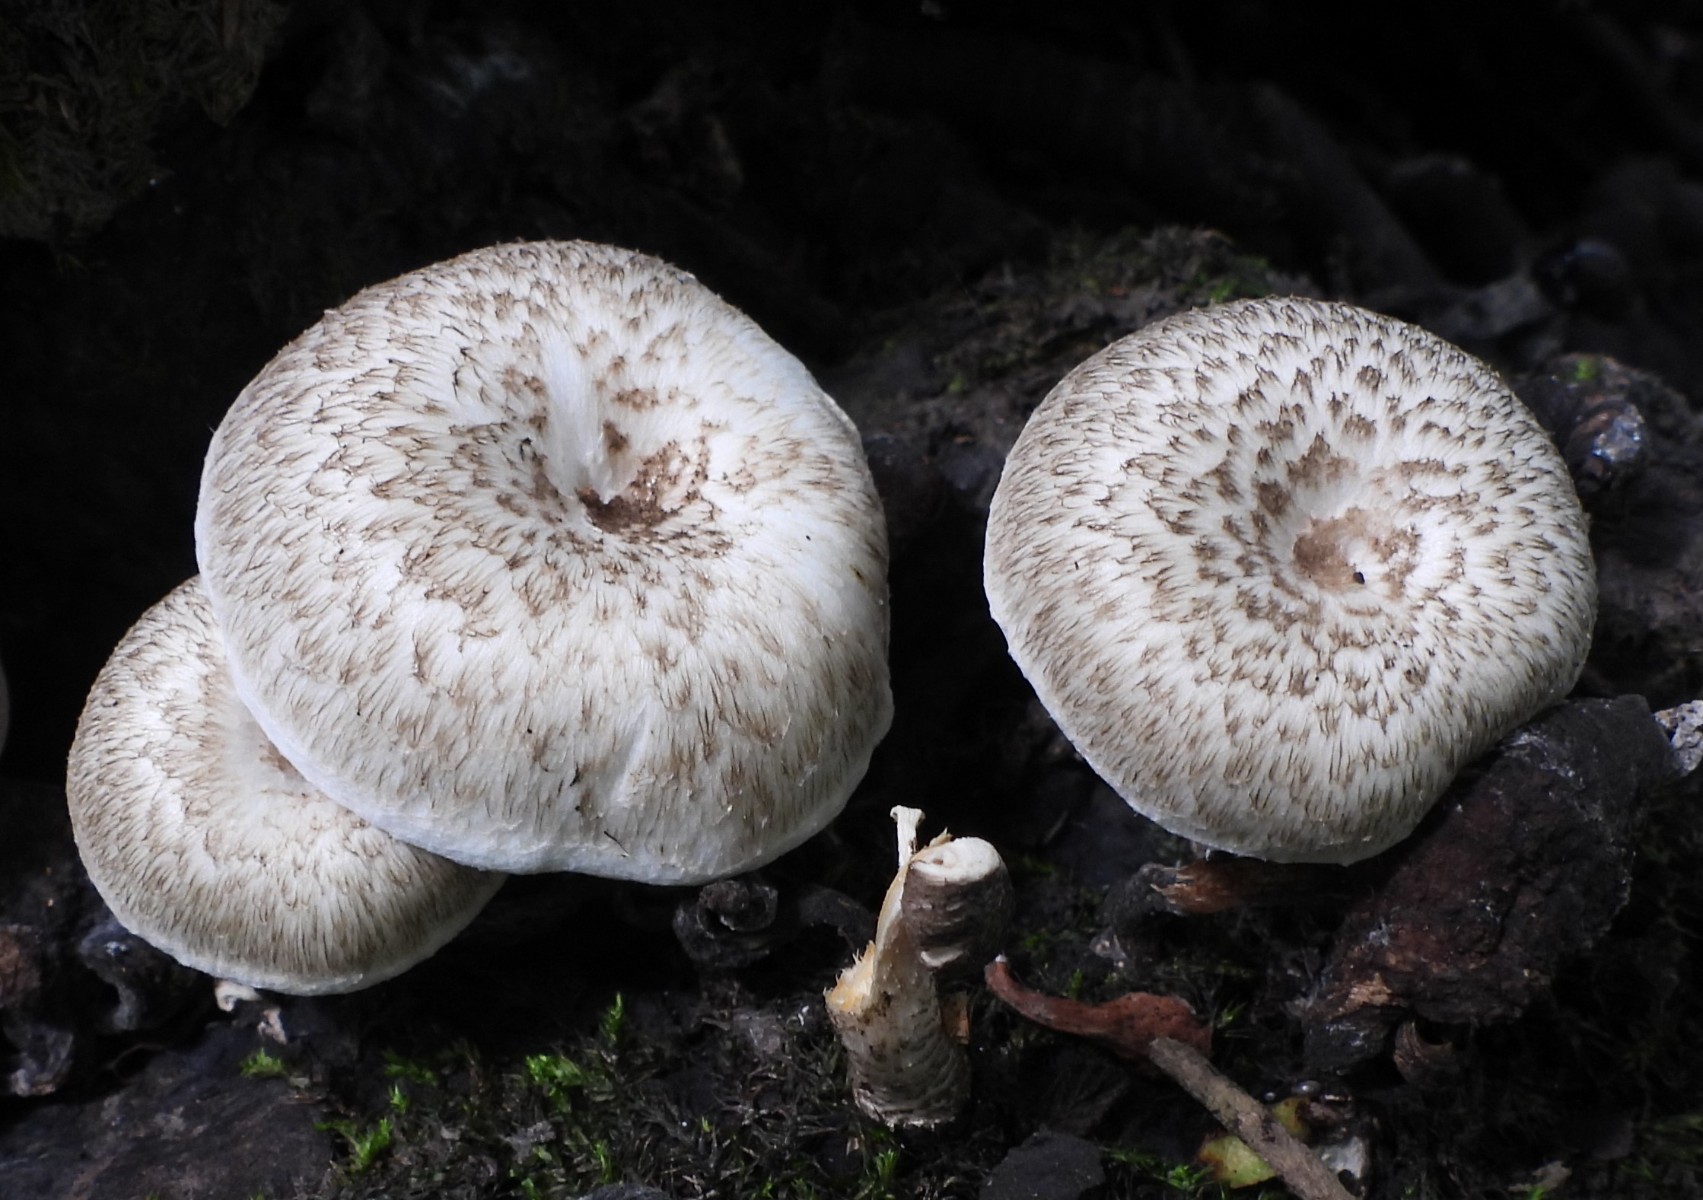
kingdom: Fungi
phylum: Basidiomycota
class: Agaricomycetes
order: Polyporales
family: Polyporaceae
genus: Lentinus
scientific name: Lentinus tigrinus
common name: tigerhat
